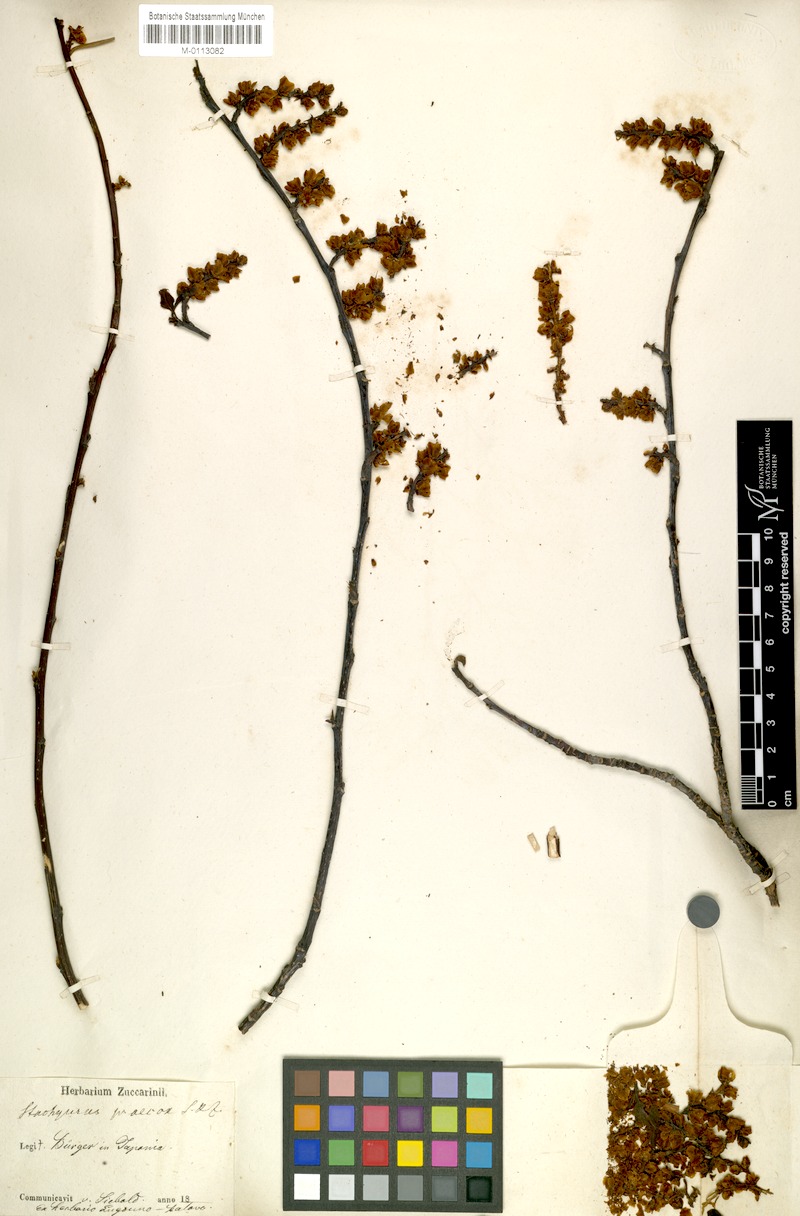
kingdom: Plantae
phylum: Tracheophyta
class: Magnoliopsida
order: Crossosomatales
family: Stachyuraceae
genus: Stachyurus
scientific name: Stachyurus praecox
